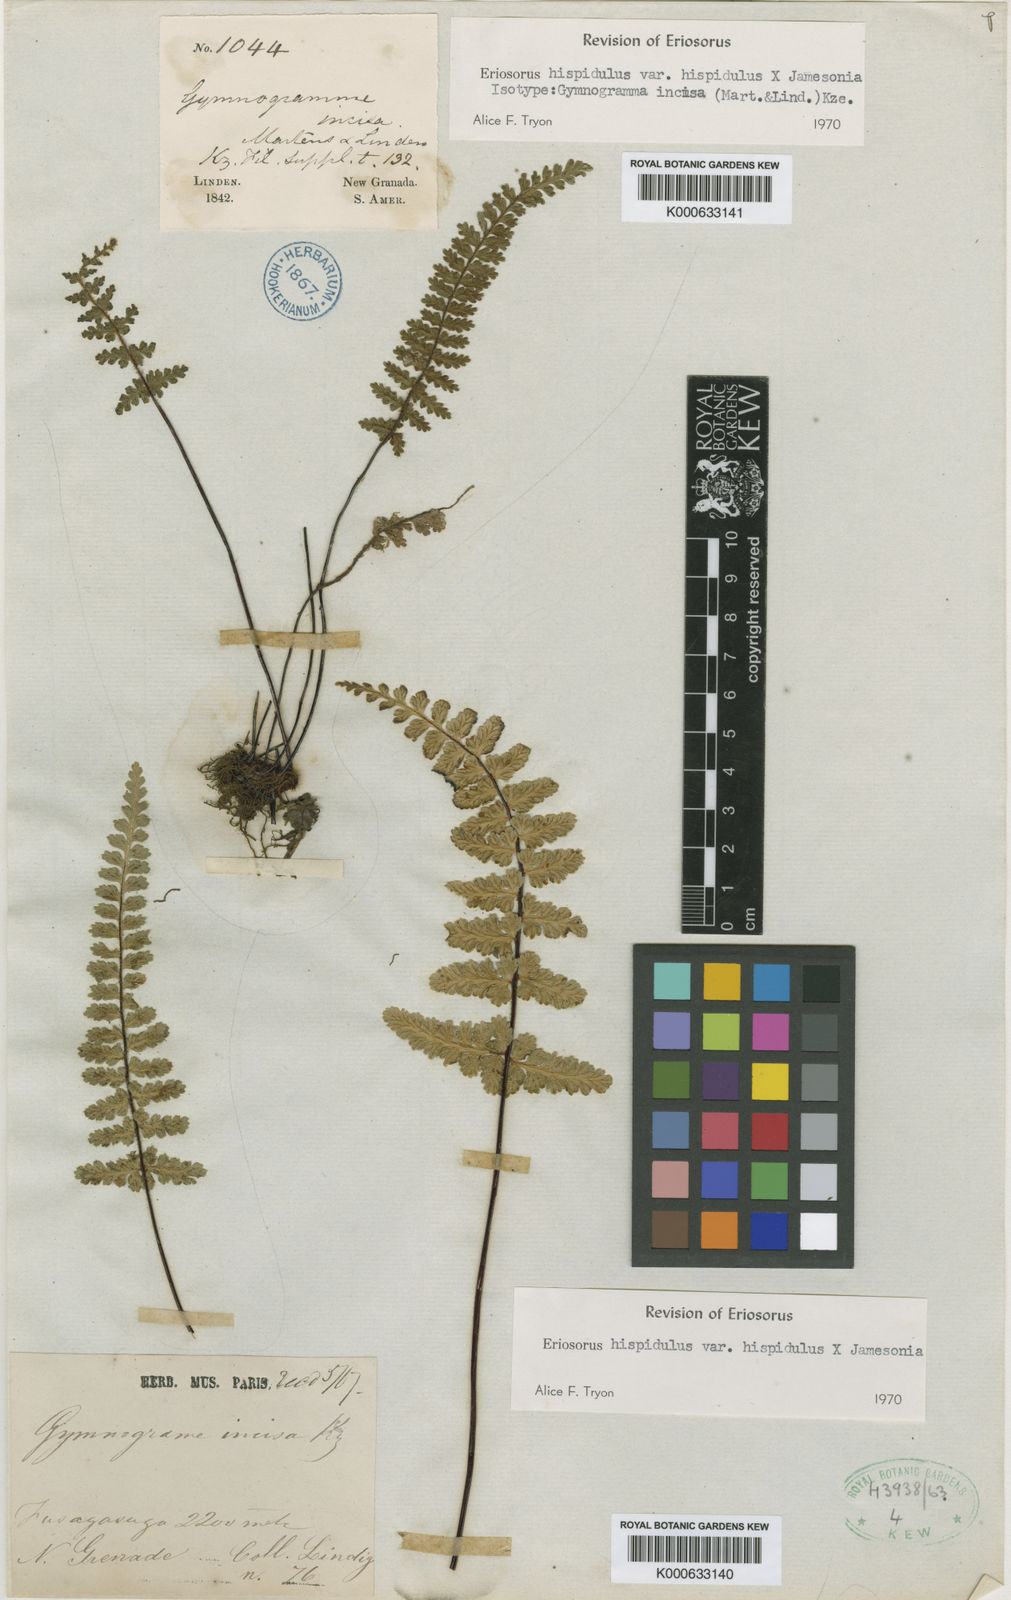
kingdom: Plantae
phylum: Tracheophyta
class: Polypodiopsida
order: Polypodiales
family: Pteridaceae
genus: Jamesonia
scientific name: Jamesonia hispidula
